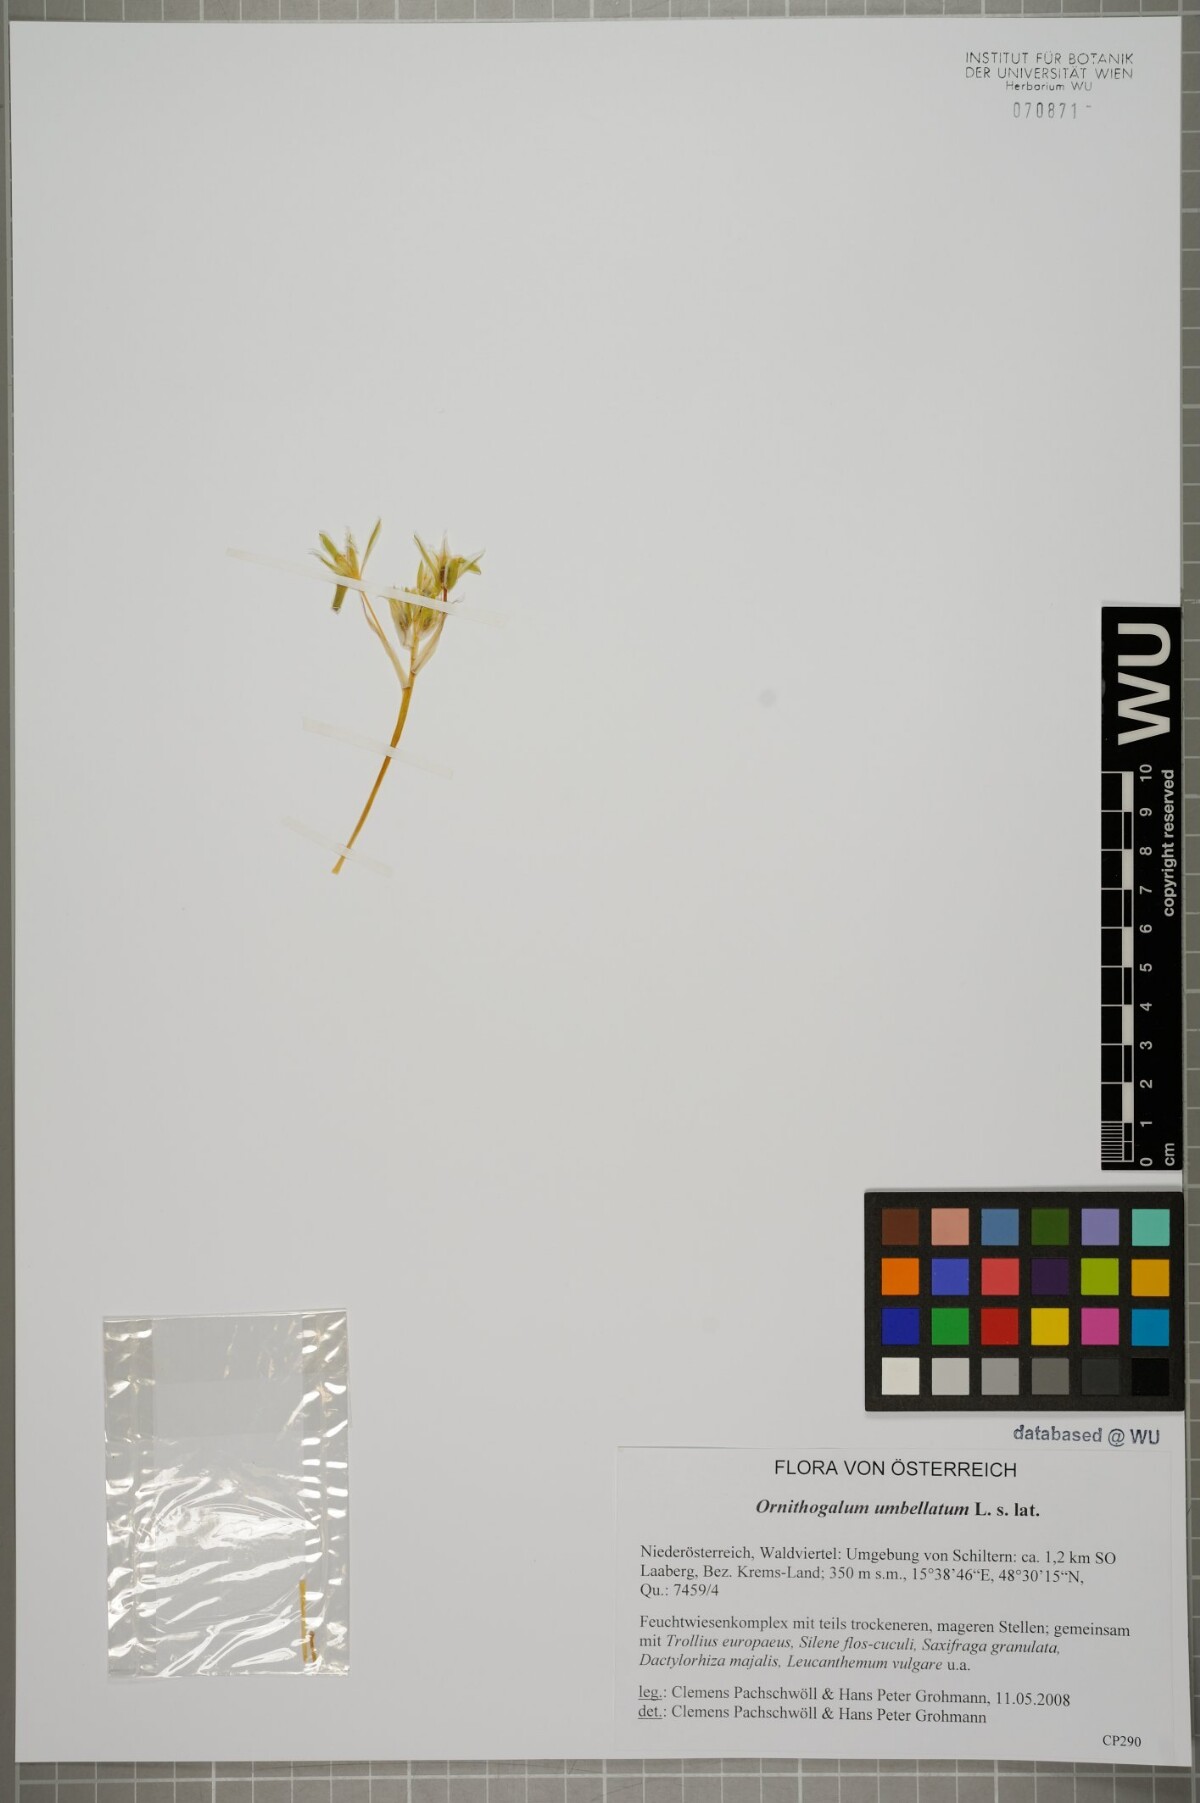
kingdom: Plantae
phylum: Tracheophyta
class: Liliopsida
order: Asparagales
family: Asparagaceae
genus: Ornithogalum
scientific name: Ornithogalum umbellatum
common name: Garden star-of-bethlehem
